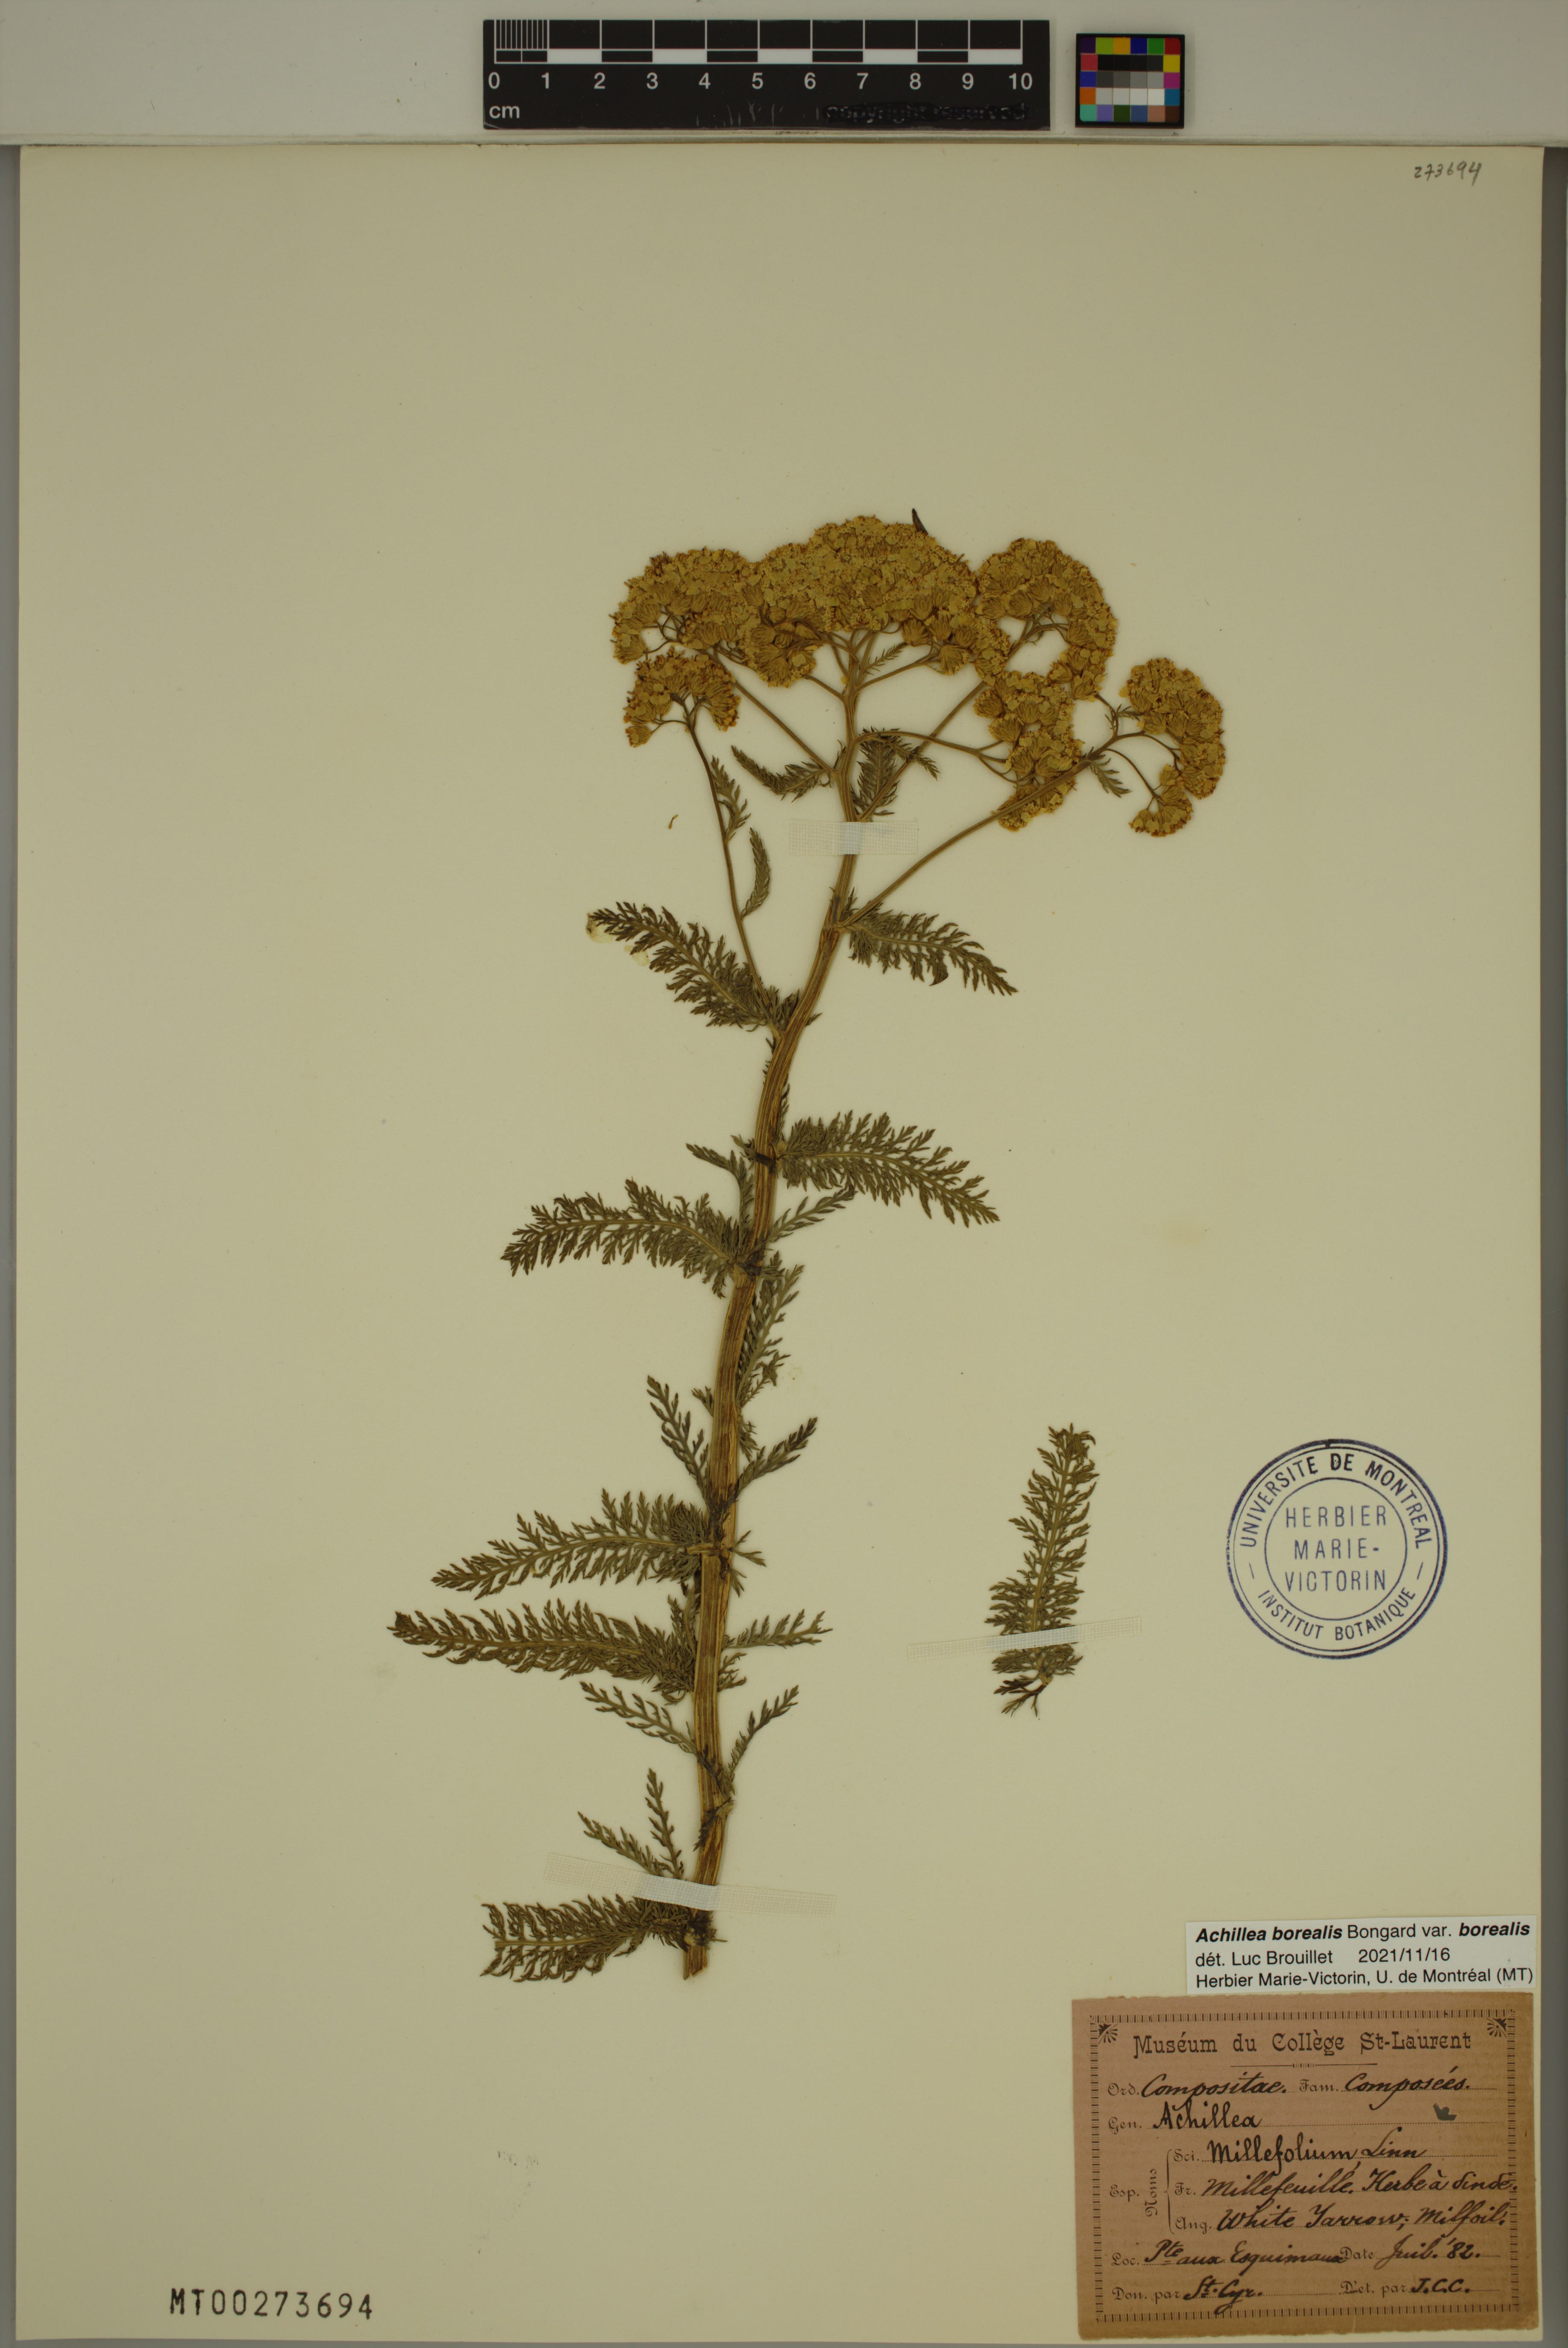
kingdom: Plantae
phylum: Tracheophyta
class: Magnoliopsida
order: Asterales
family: Asteraceae
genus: Achillea
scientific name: Achillea millefolium
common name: Yarrow
